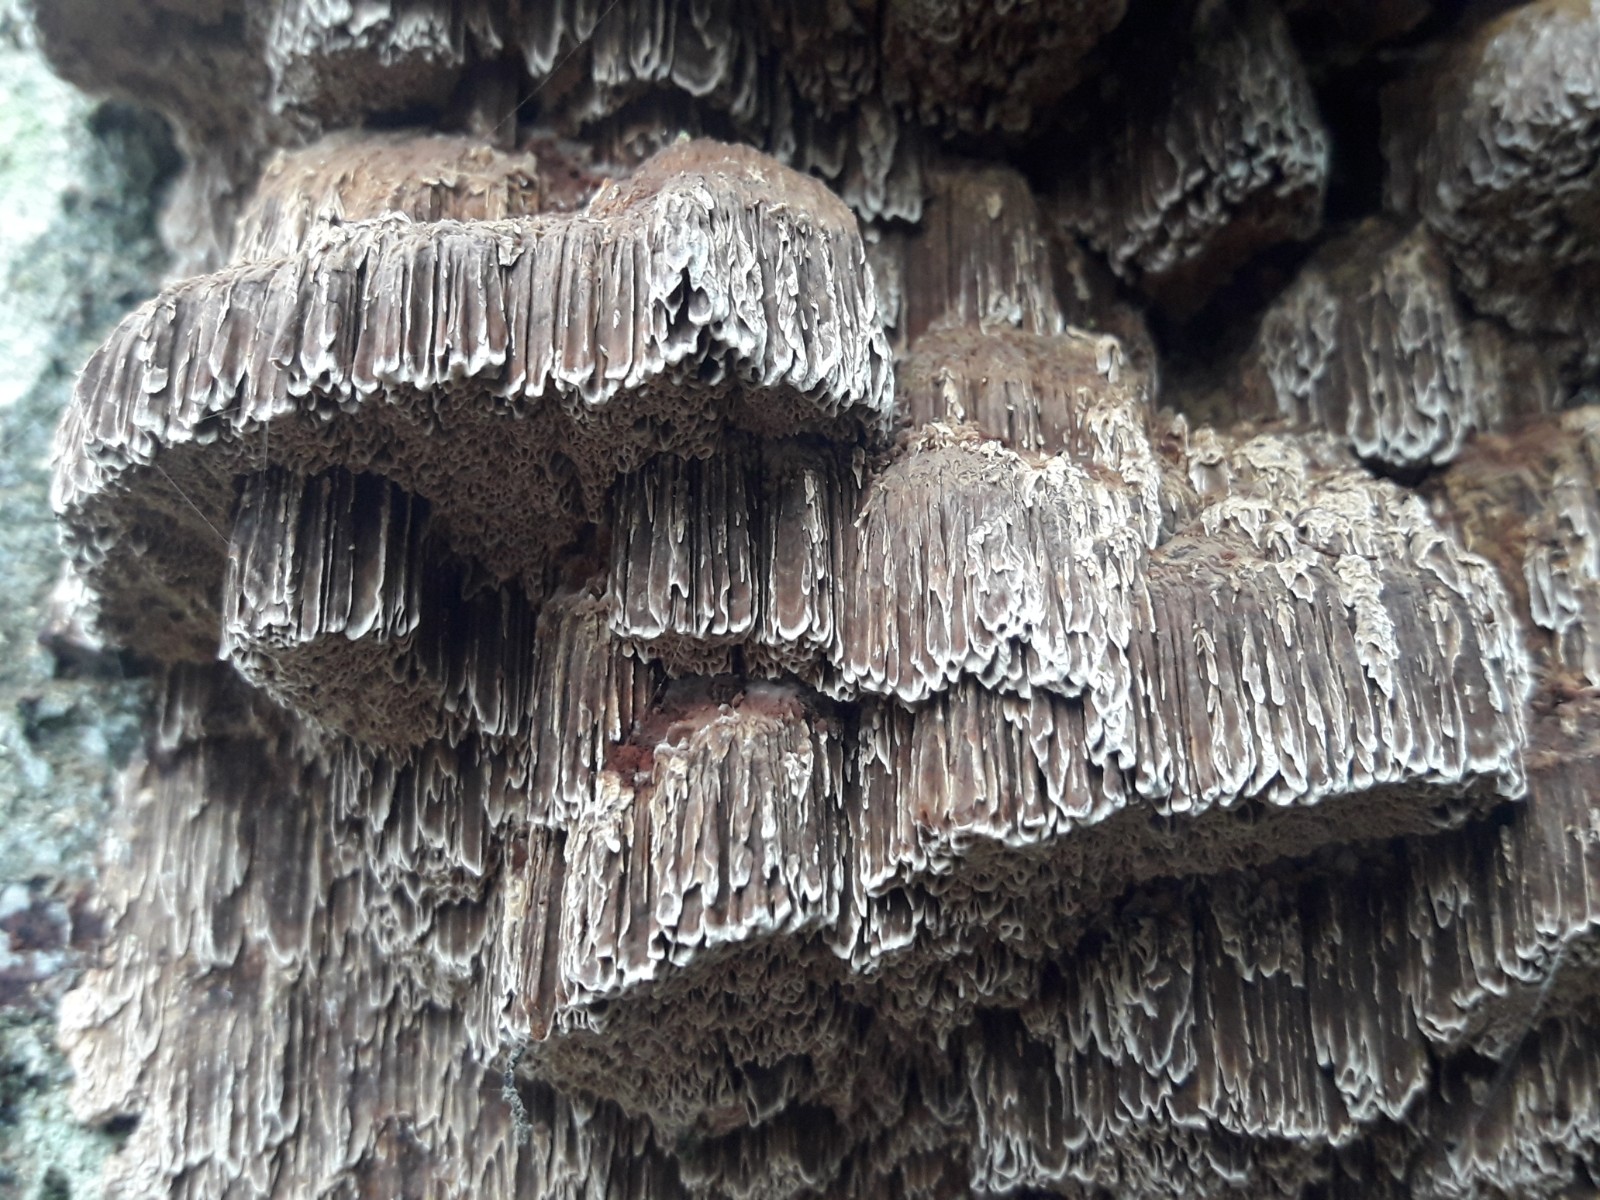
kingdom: Fungi
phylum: Basidiomycota
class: Agaricomycetes
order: Hymenochaetales
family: Hymenochaetaceae
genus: Mensularia
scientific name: Mensularia nodulosa
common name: bøge-spejlporesvamp
